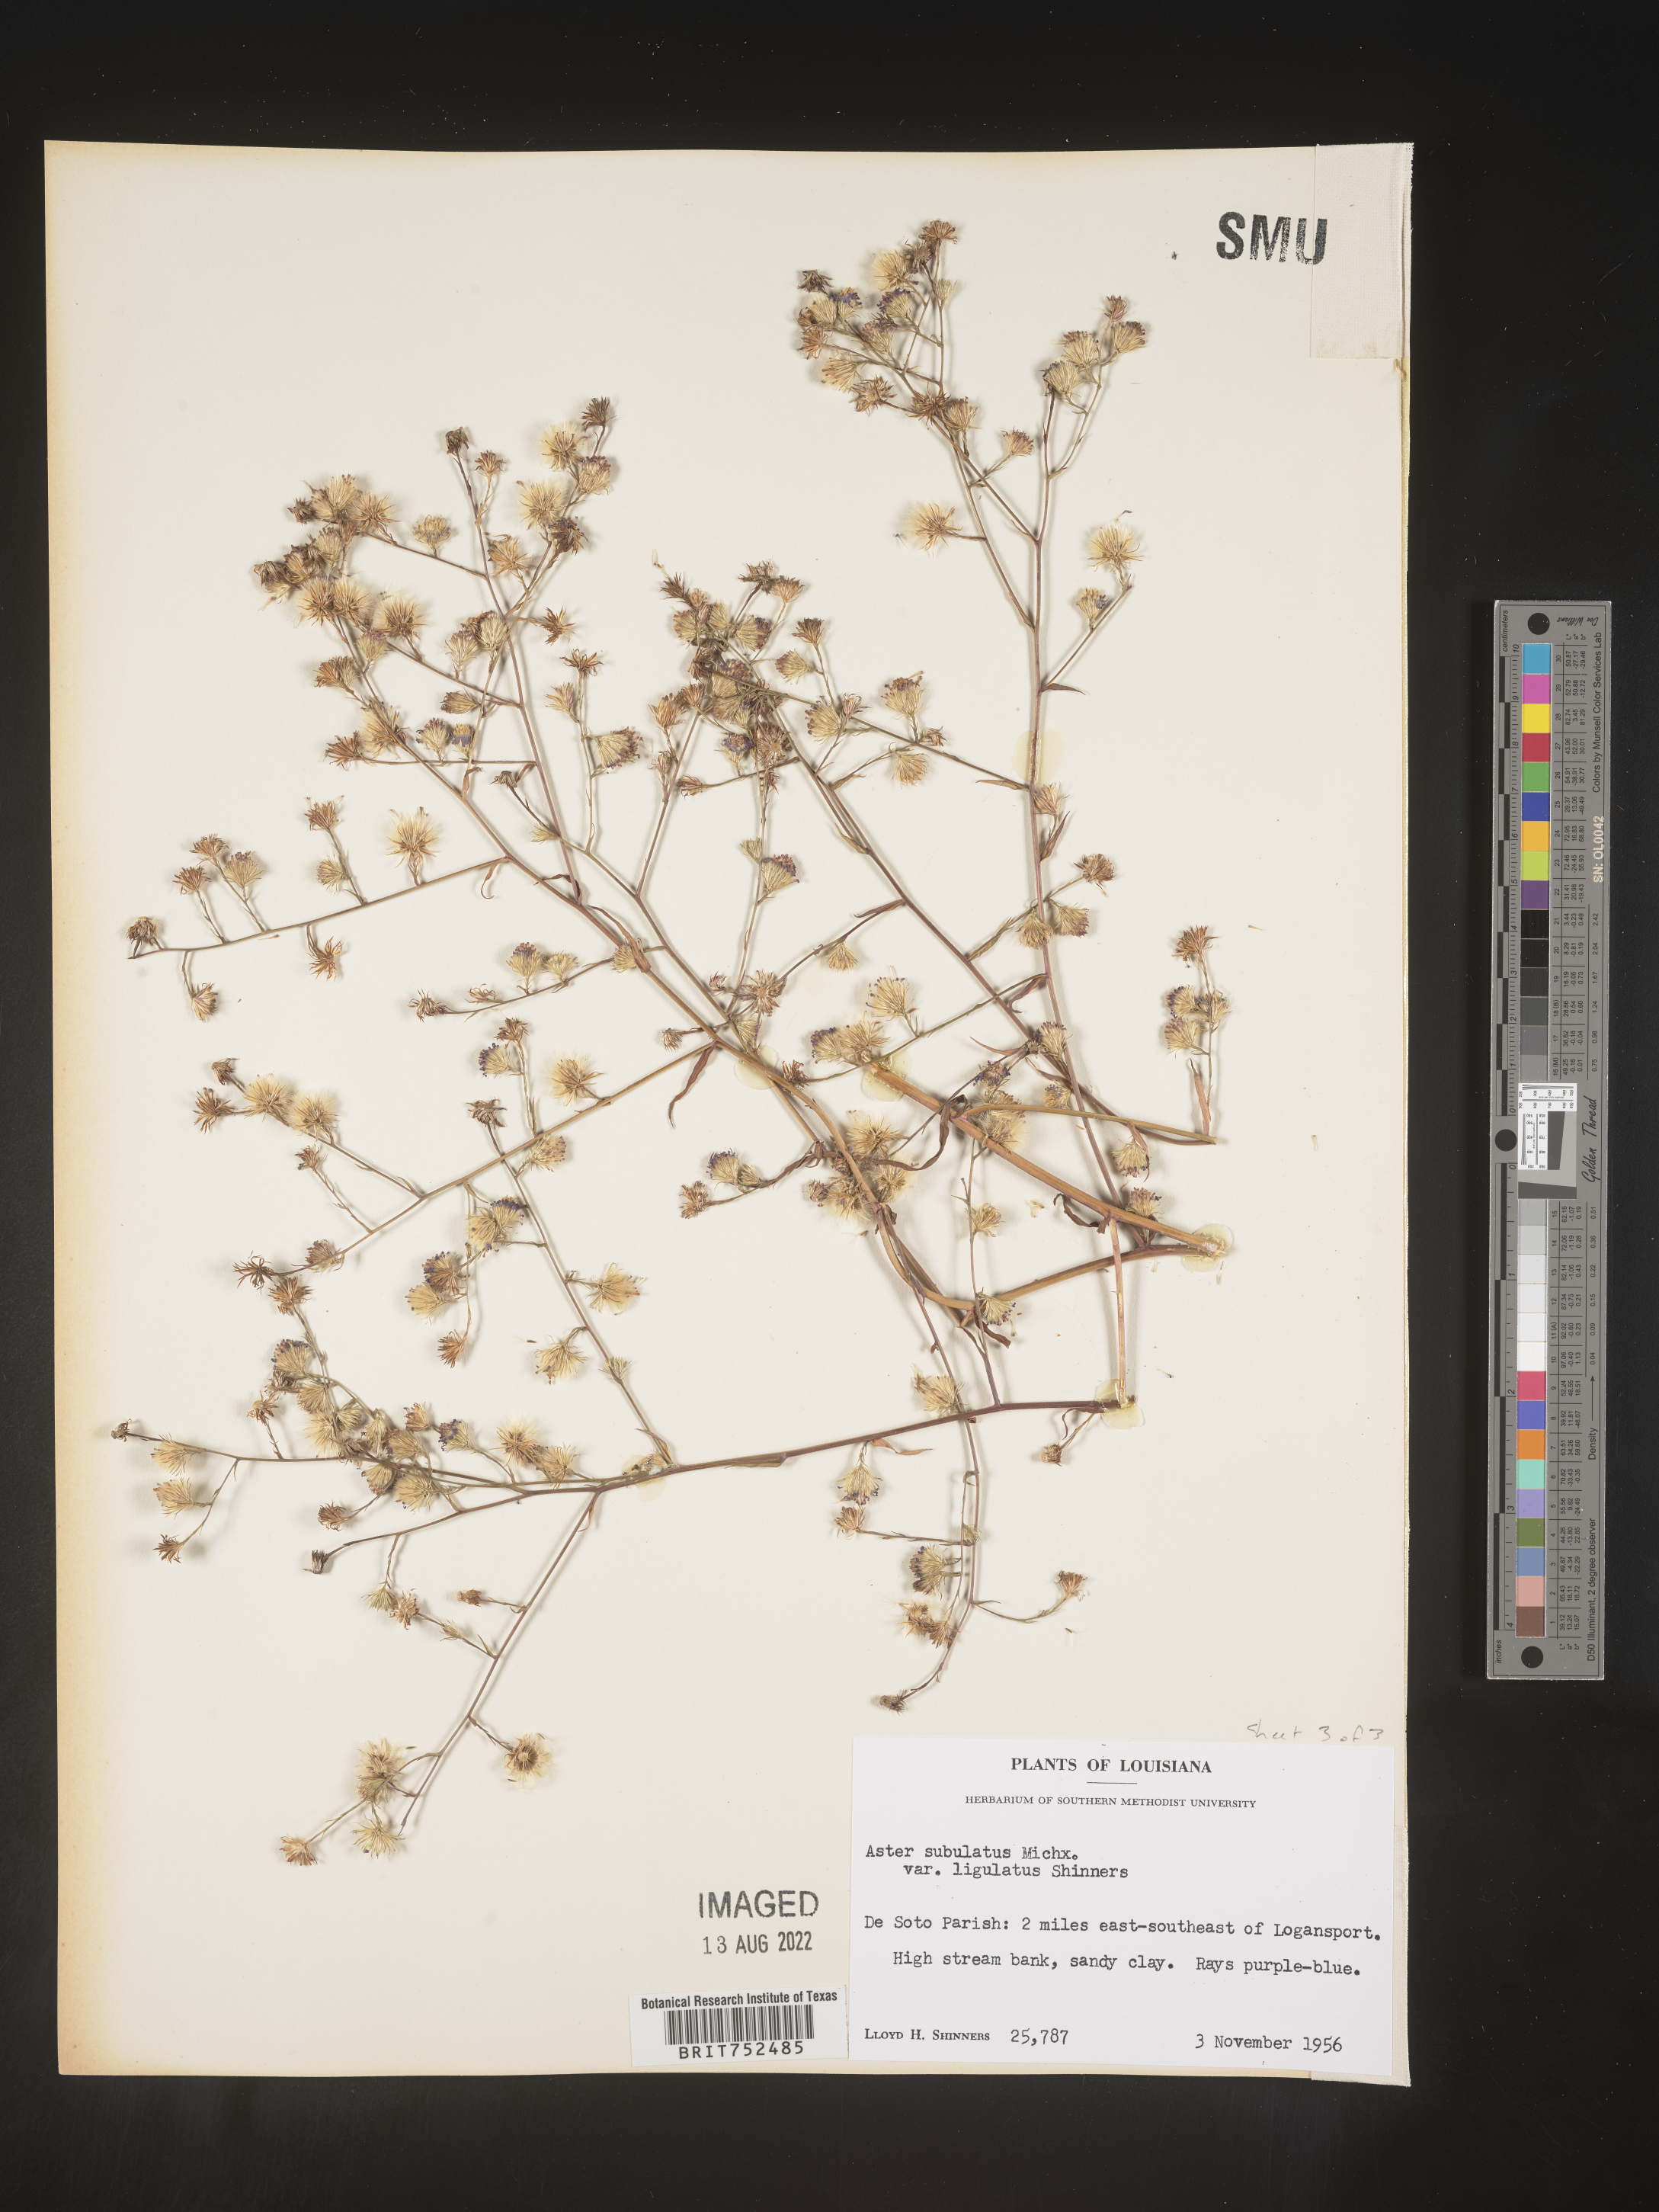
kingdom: Plantae
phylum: Tracheophyta
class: Magnoliopsida
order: Asterales
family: Asteraceae
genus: Symphyotrichum
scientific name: Symphyotrichum divaricatum
